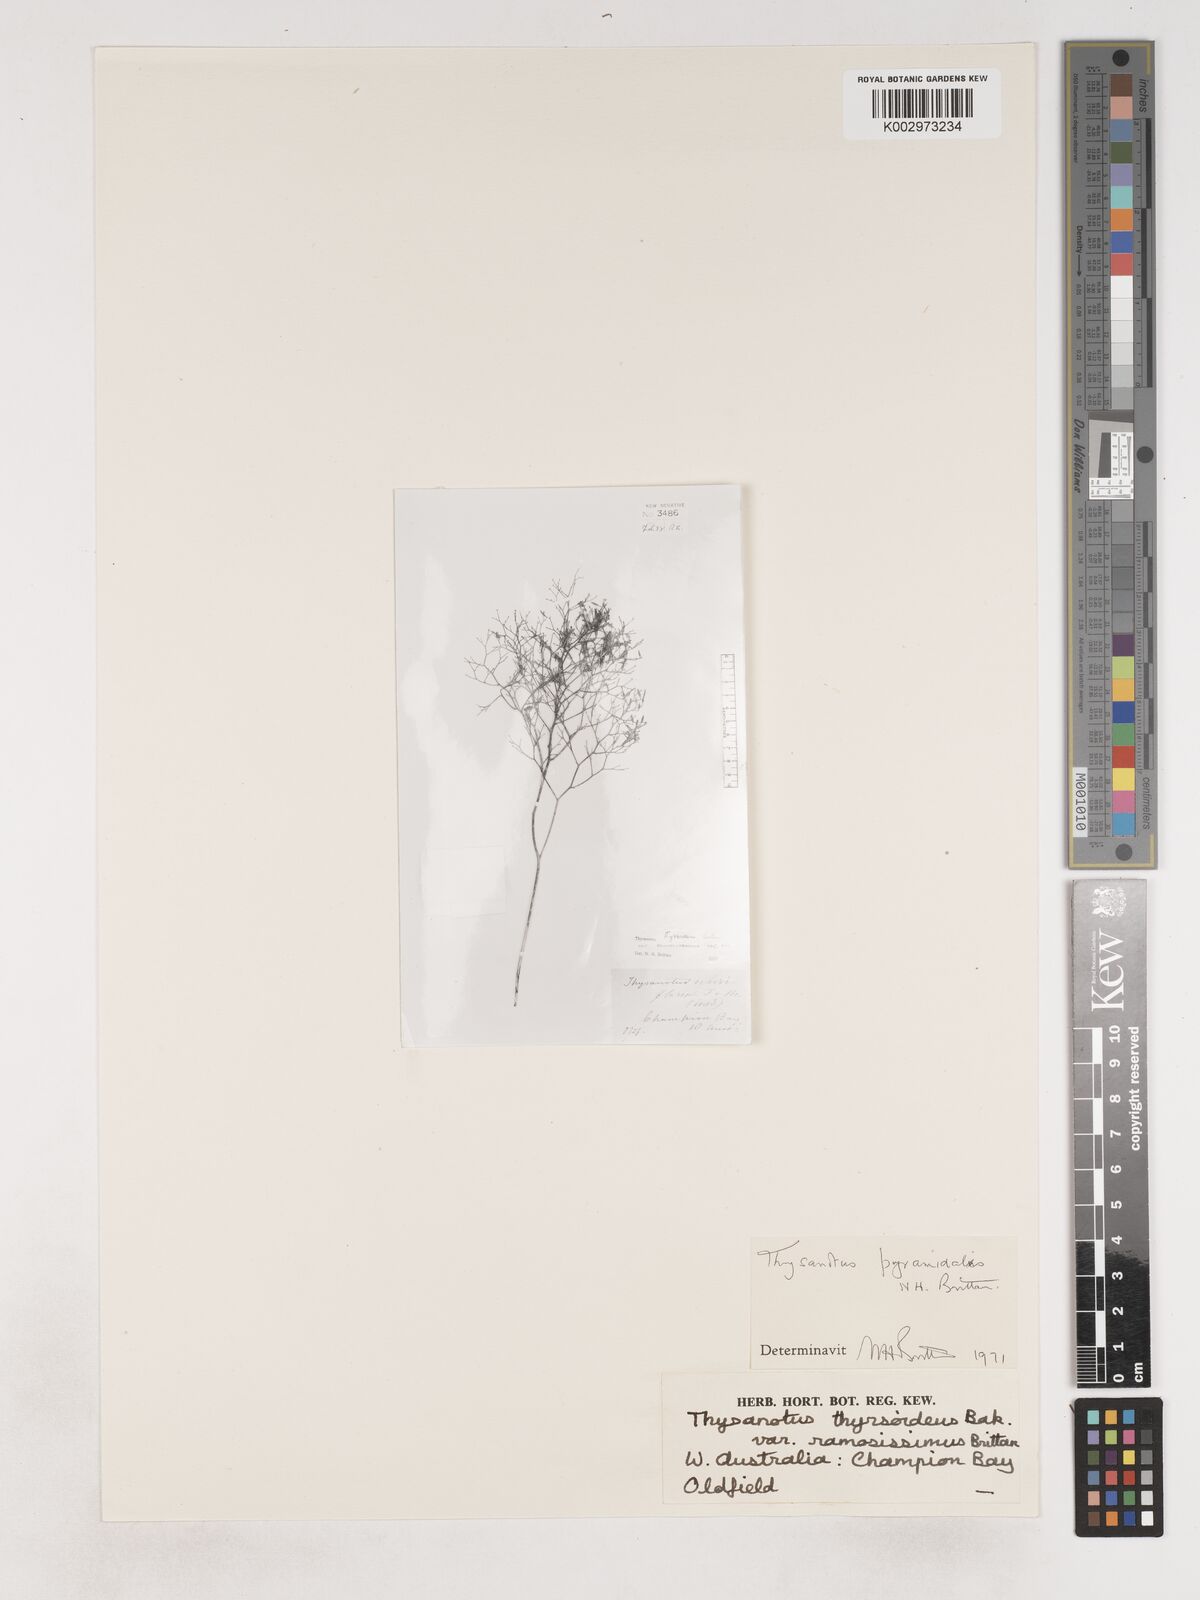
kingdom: Plantae
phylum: Tracheophyta
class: Liliopsida
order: Asparagales
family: Asparagaceae
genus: Thysanotus
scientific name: Thysanotus pyramidalis
